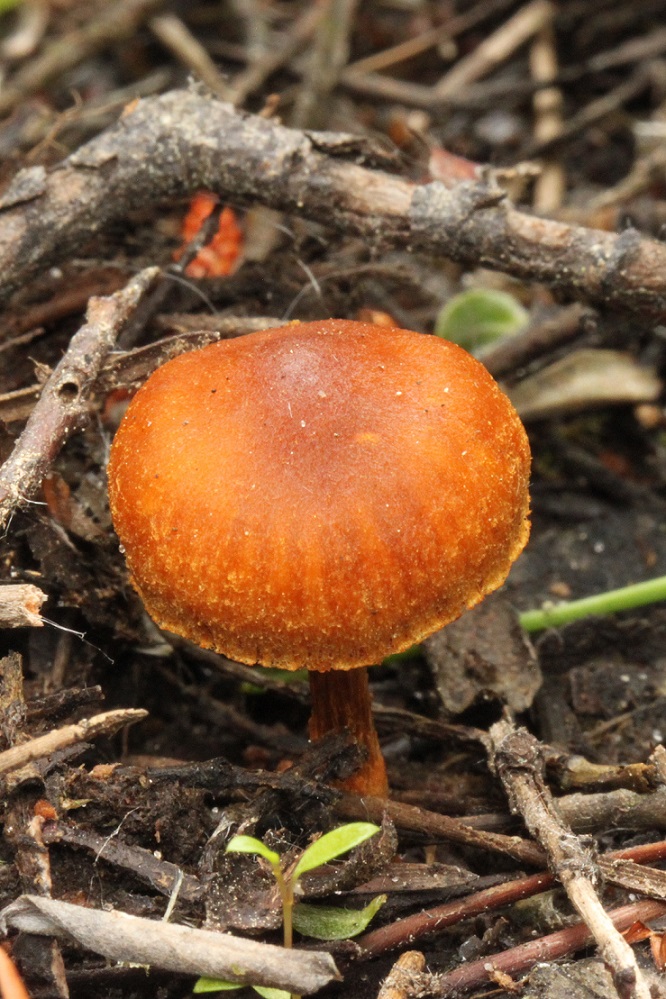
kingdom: Fungi
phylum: Basidiomycota
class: Agaricomycetes
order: Agaricales
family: Cortinariaceae
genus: Cortinarius
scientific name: Cortinarius saniosus
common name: gultrævlet slørhat
